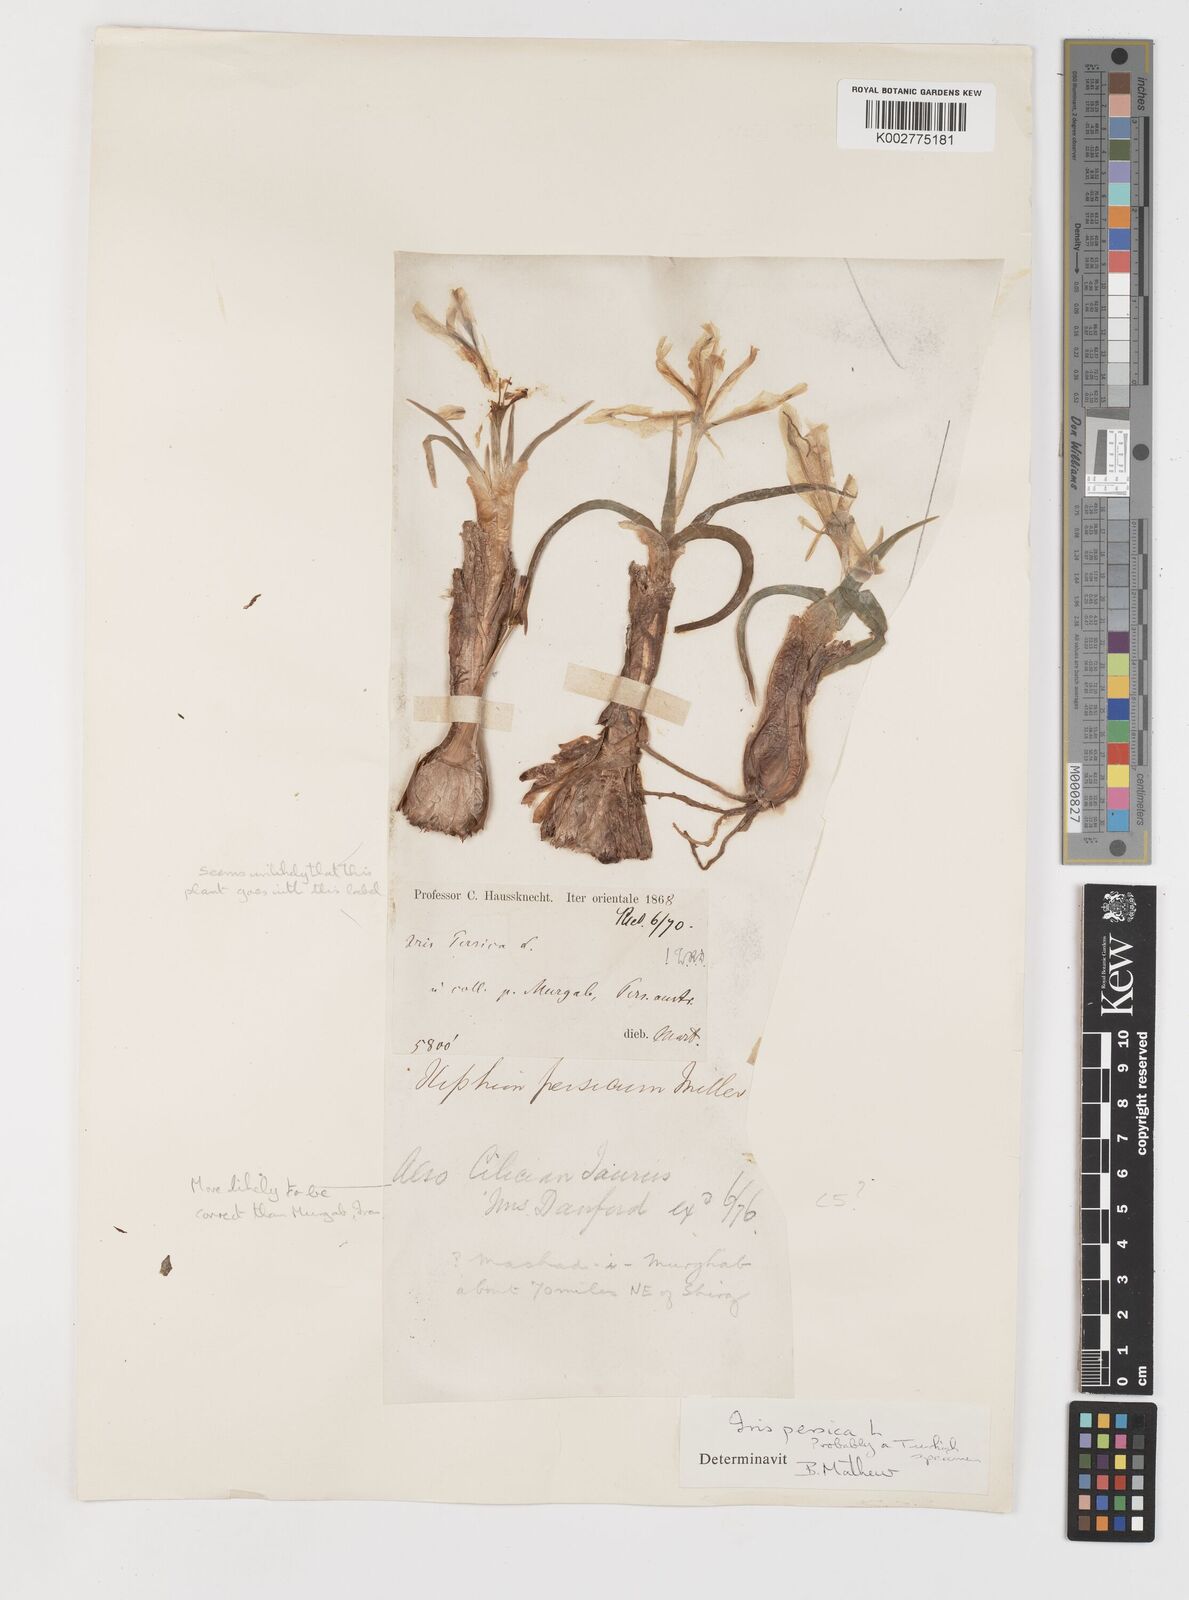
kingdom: Plantae
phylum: Tracheophyta
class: Liliopsida
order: Asparagales
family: Iridaceae
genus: Iris
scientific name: Iris persica
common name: Persian iris
